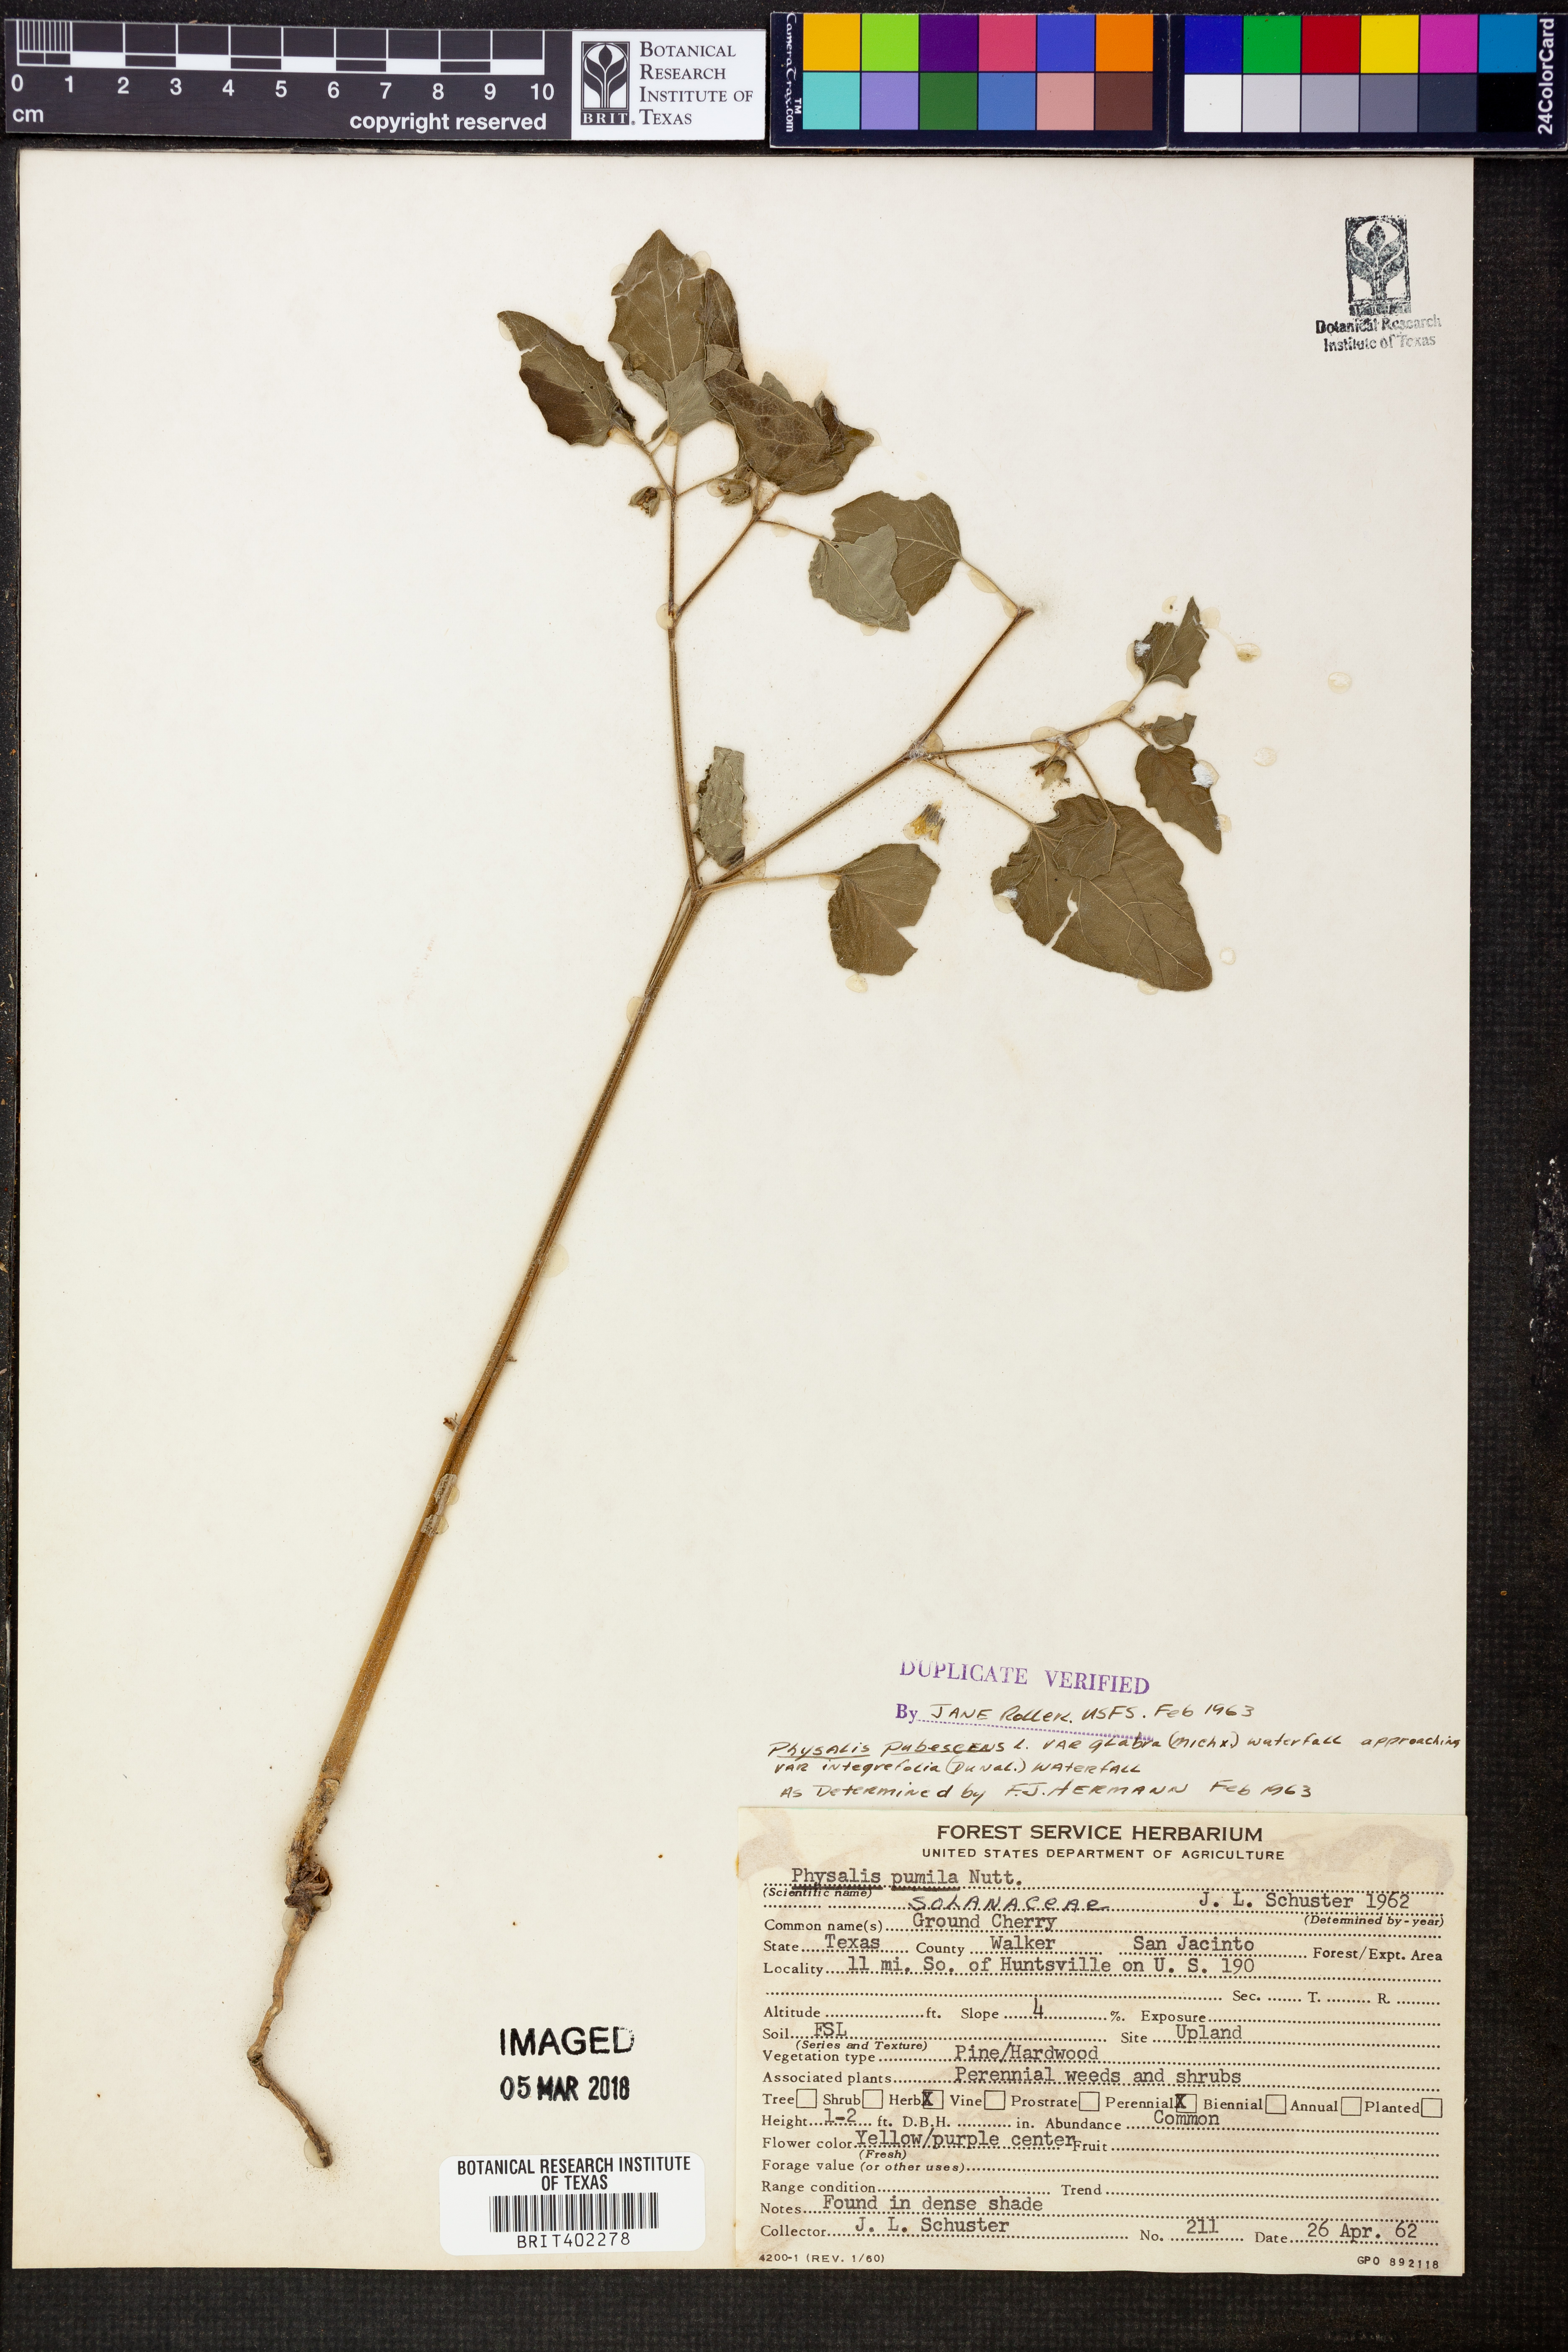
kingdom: Plantae
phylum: Tracheophyta
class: Magnoliopsida
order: Solanales
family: Solanaceae
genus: Physalis
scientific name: Physalis pubescens
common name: Downy ground-cherry
